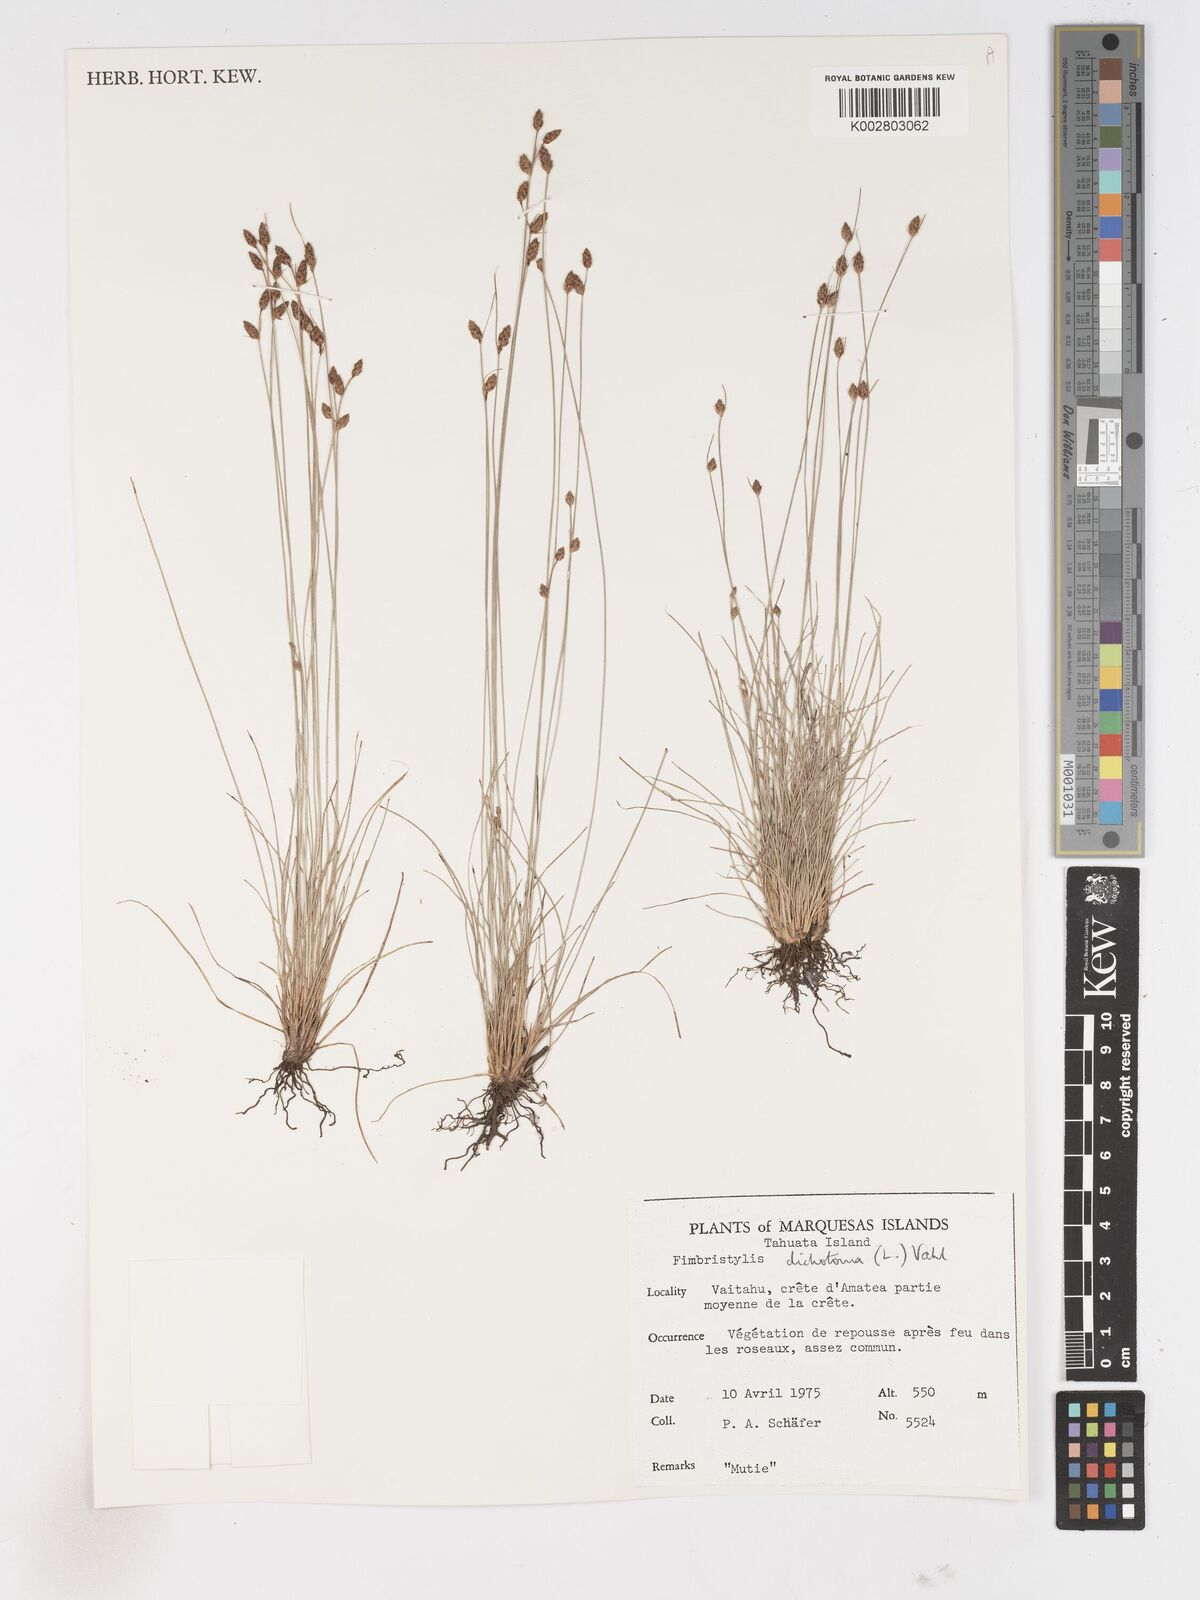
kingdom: Plantae
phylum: Tracheophyta
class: Liliopsida
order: Poales
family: Cyperaceae
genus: Fimbristylis
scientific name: Fimbristylis dichotoma
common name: Forked fimbry
